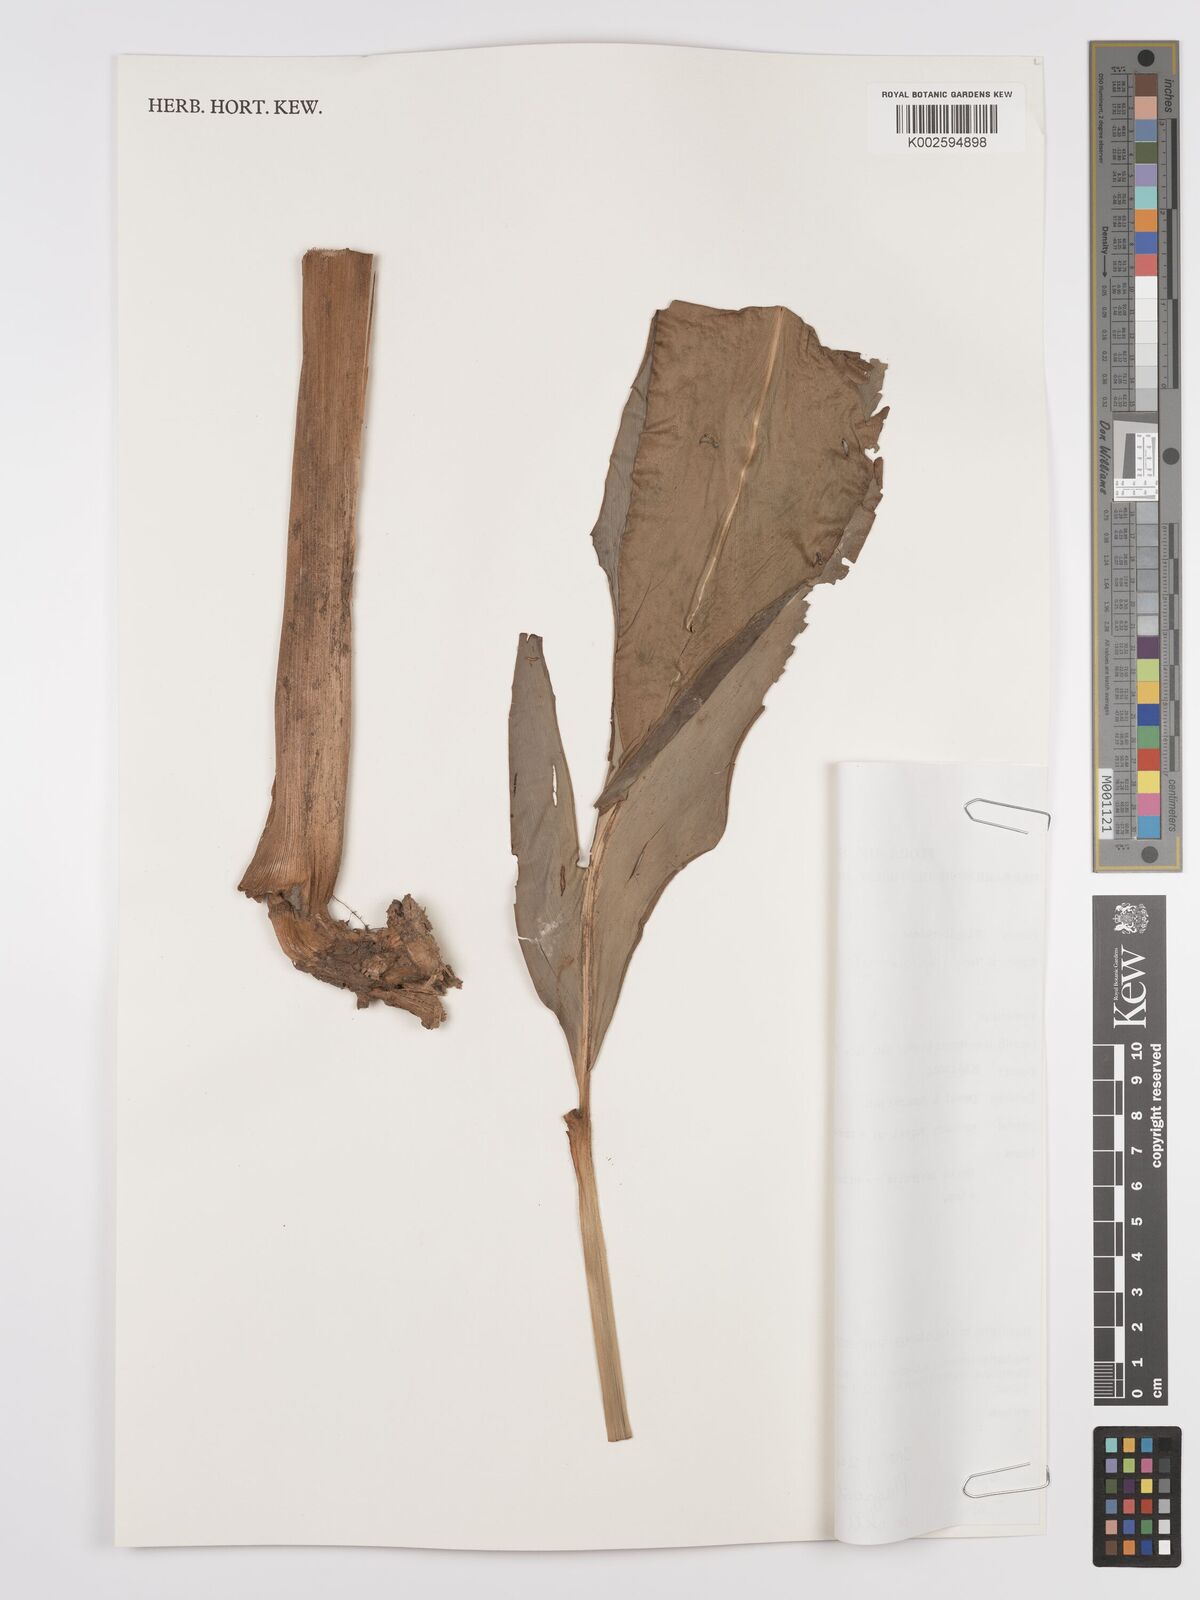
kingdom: Plantae
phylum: Tracheophyta
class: Liliopsida
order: Zingiberales
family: Zingiberaceae
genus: Plagiostachys
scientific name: Plagiostachys breviramosa
